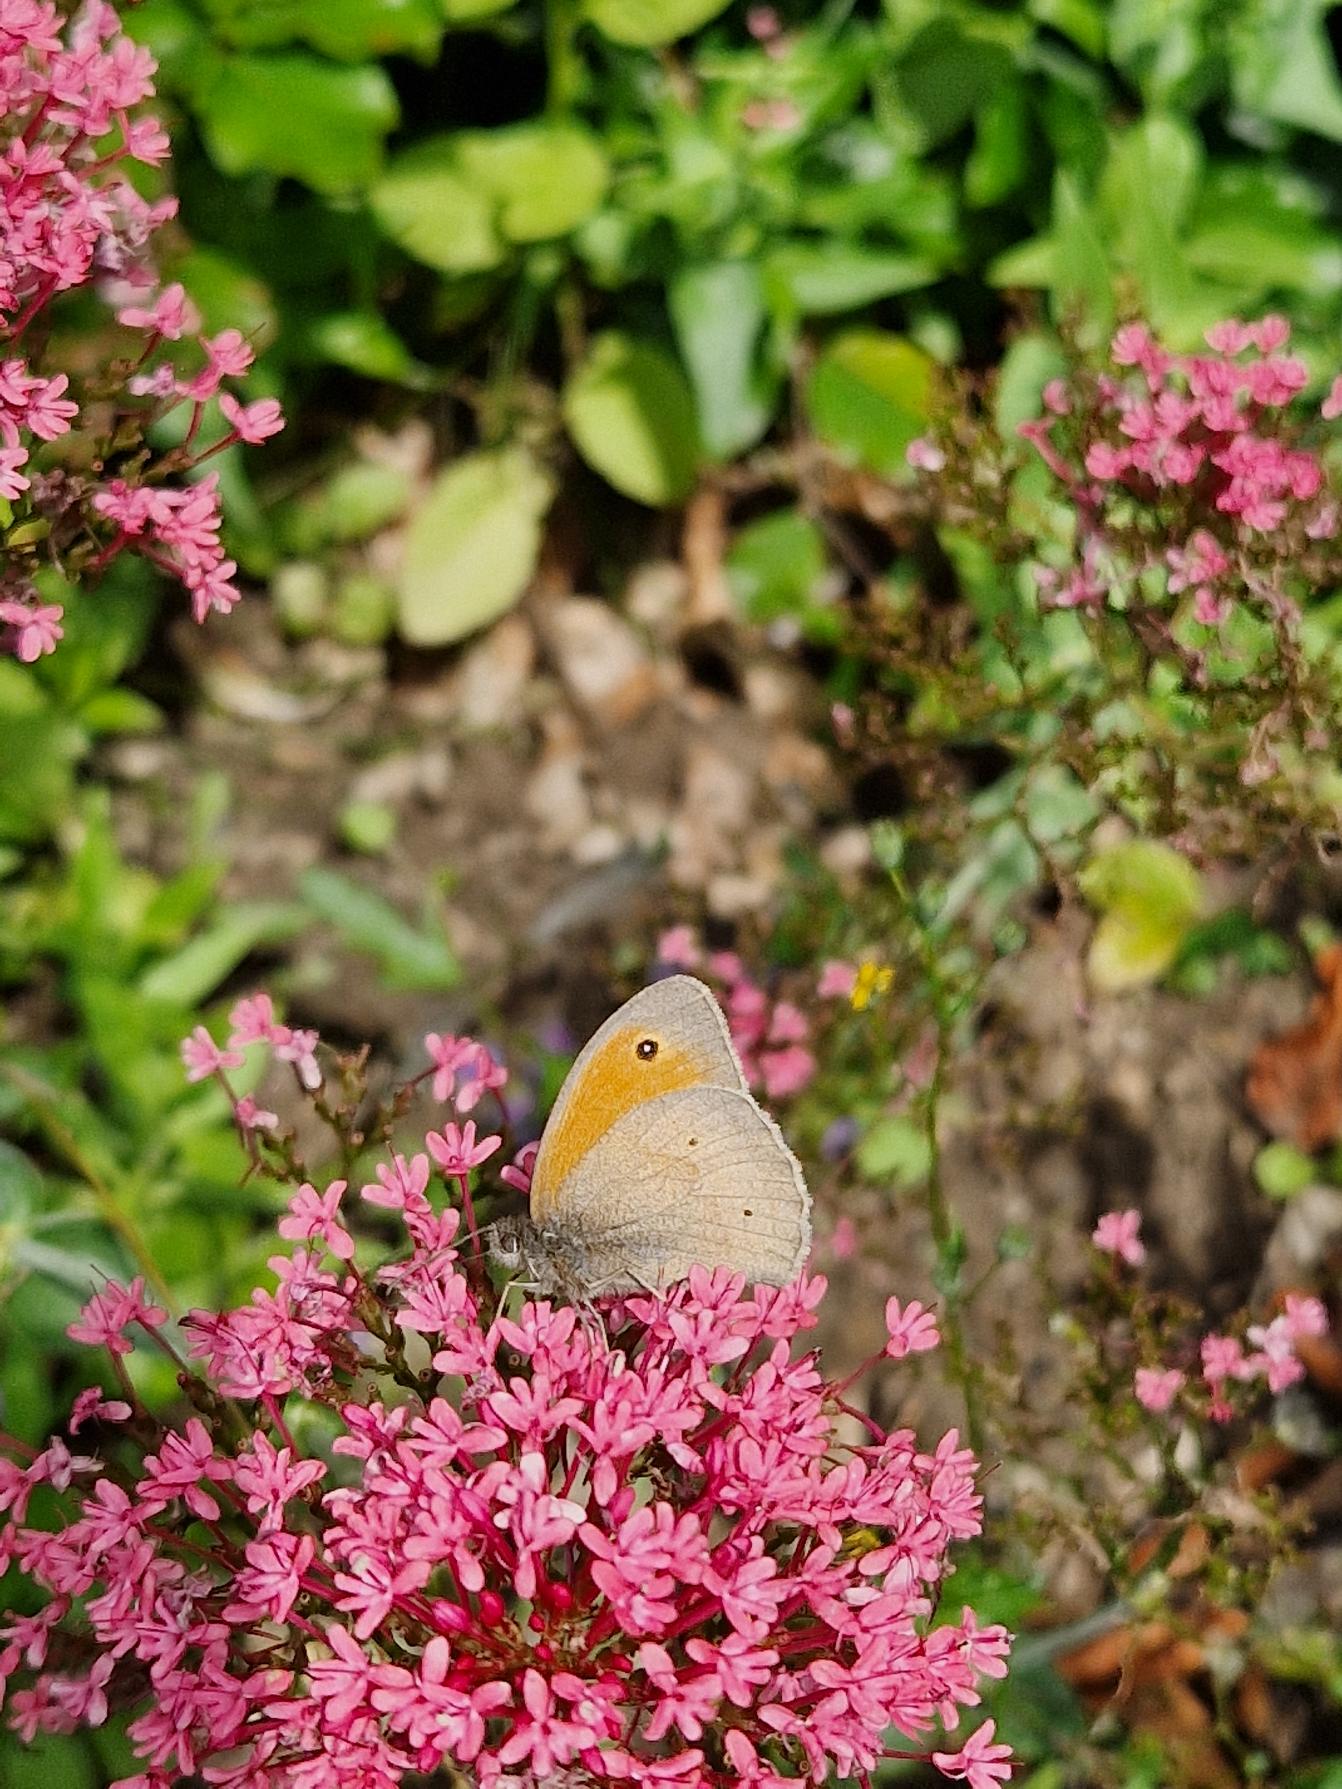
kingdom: Animalia
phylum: Arthropoda
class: Insecta
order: Lepidoptera
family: Nymphalidae
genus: Maniola
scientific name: Maniola jurtina
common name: Græsrandøje
